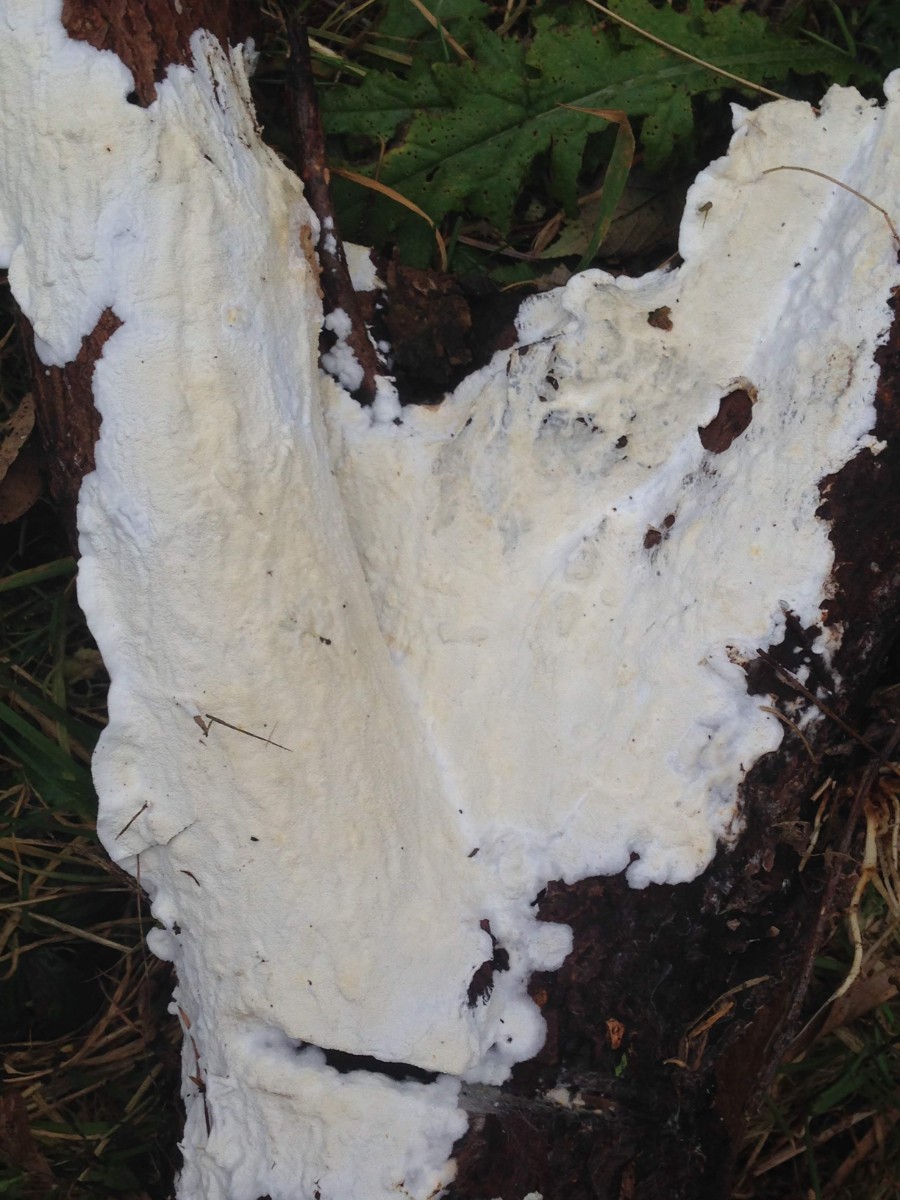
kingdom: Fungi
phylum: Basidiomycota
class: Agaricomycetes
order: Polyporales
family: Irpicaceae
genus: Byssomerulius
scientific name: Byssomerulius corium
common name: læder-åresvamp
